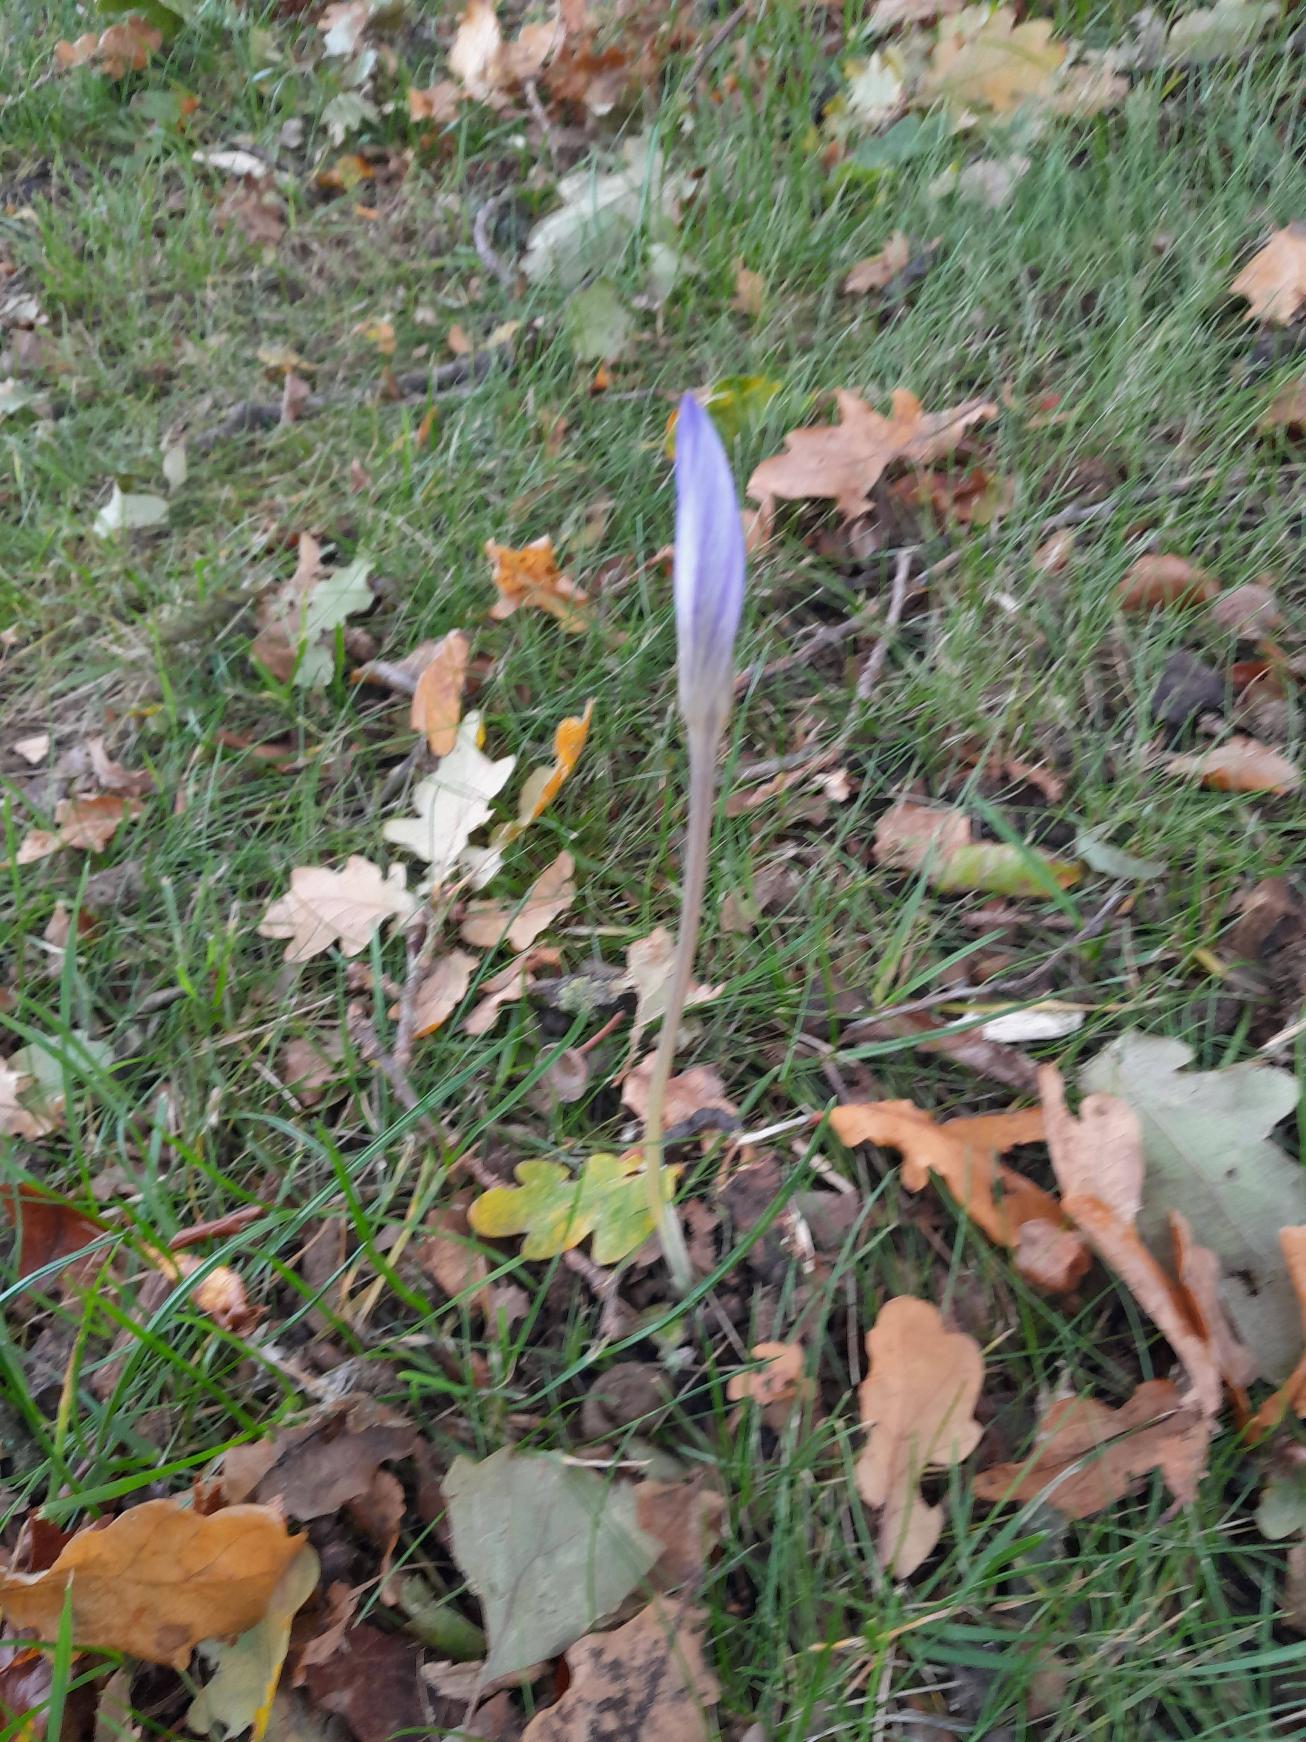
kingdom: Plantae
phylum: Tracheophyta
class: Liliopsida
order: Asparagales
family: Iridaceae
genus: Crocus
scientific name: Crocus speciosus
